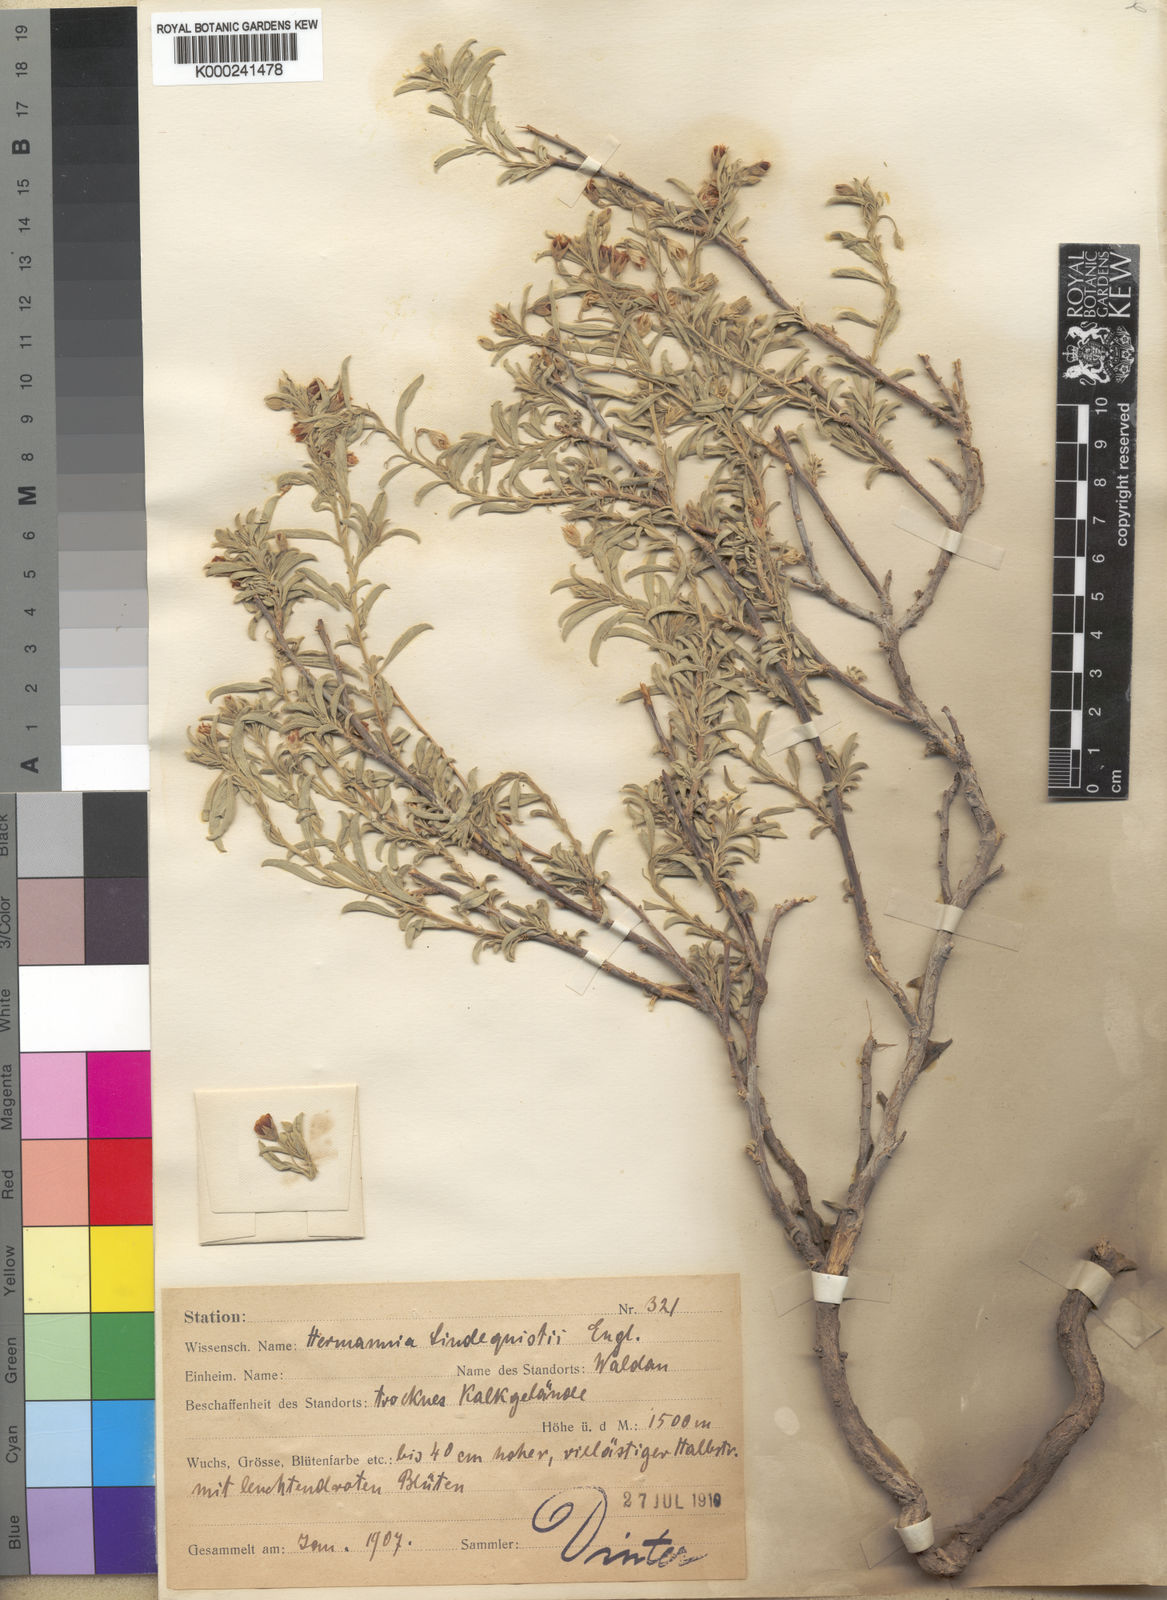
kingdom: Plantae
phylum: Tracheophyta
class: Magnoliopsida
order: Malvales
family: Malvaceae
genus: Hermannia
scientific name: Hermannia damarana
